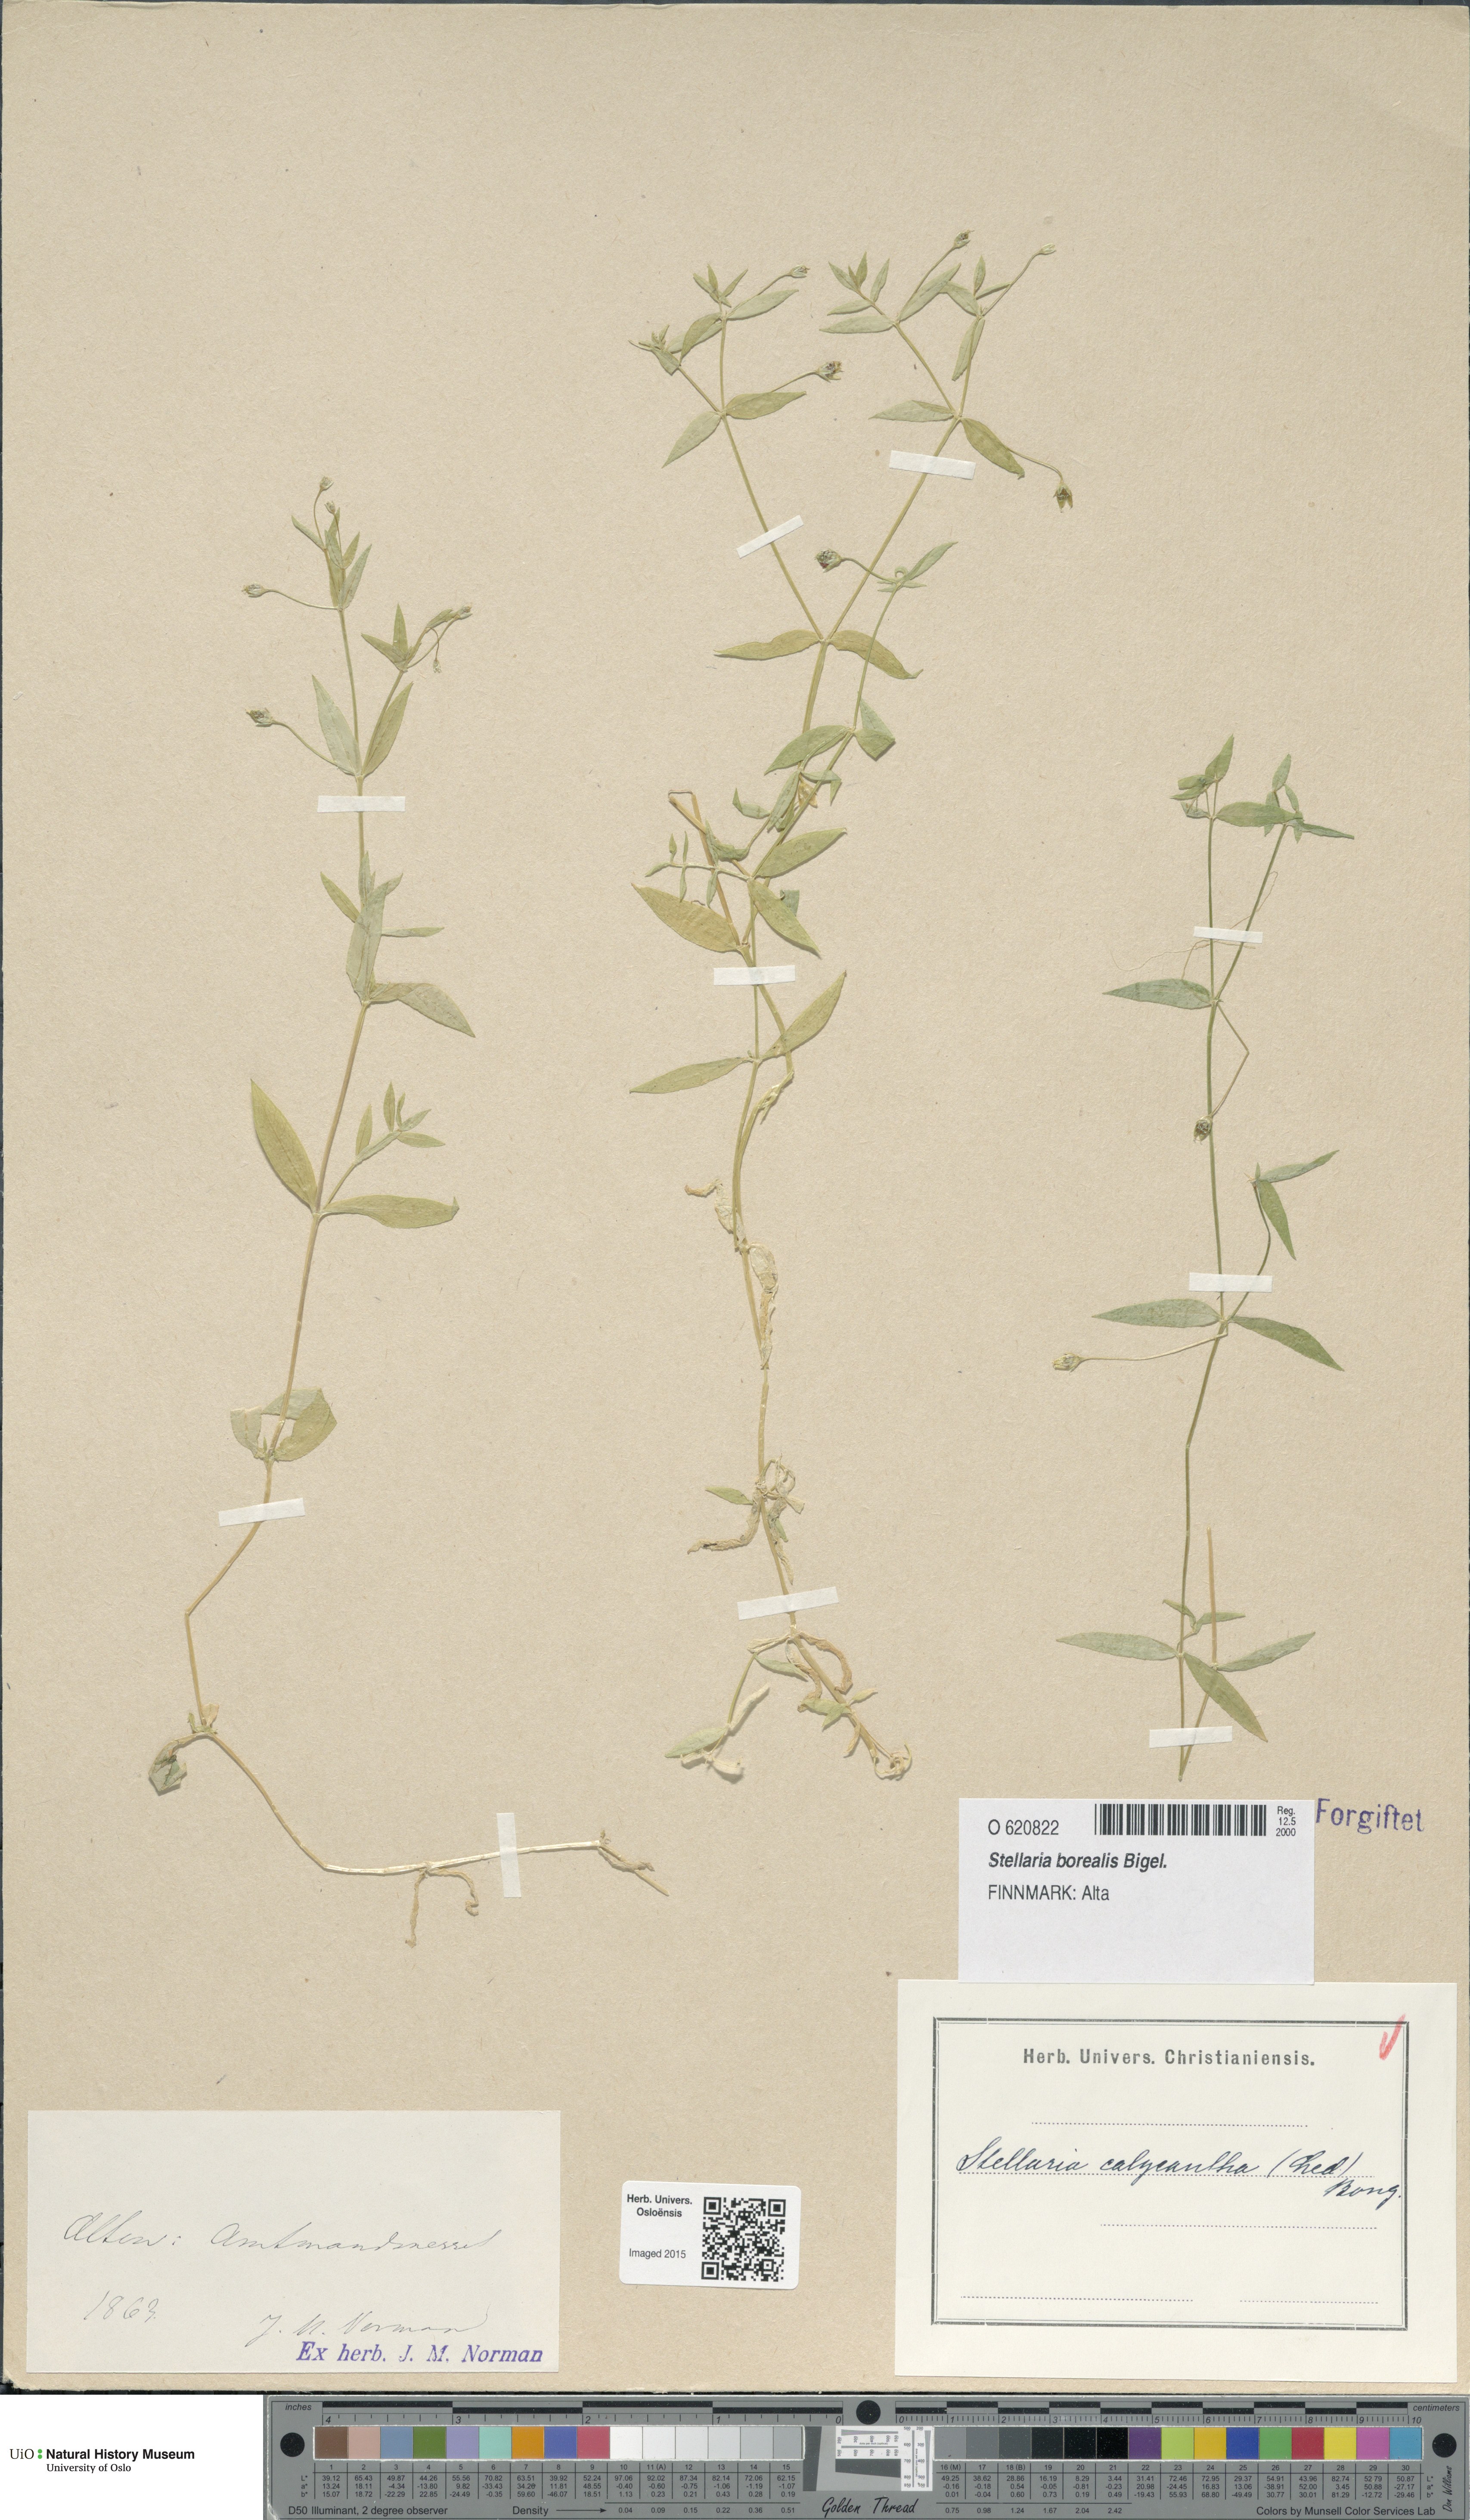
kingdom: Plantae
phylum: Tracheophyta
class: Magnoliopsida
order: Caryophyllales
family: Caryophyllaceae
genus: Stellaria
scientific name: Stellaria borealis
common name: Boreal starwort
